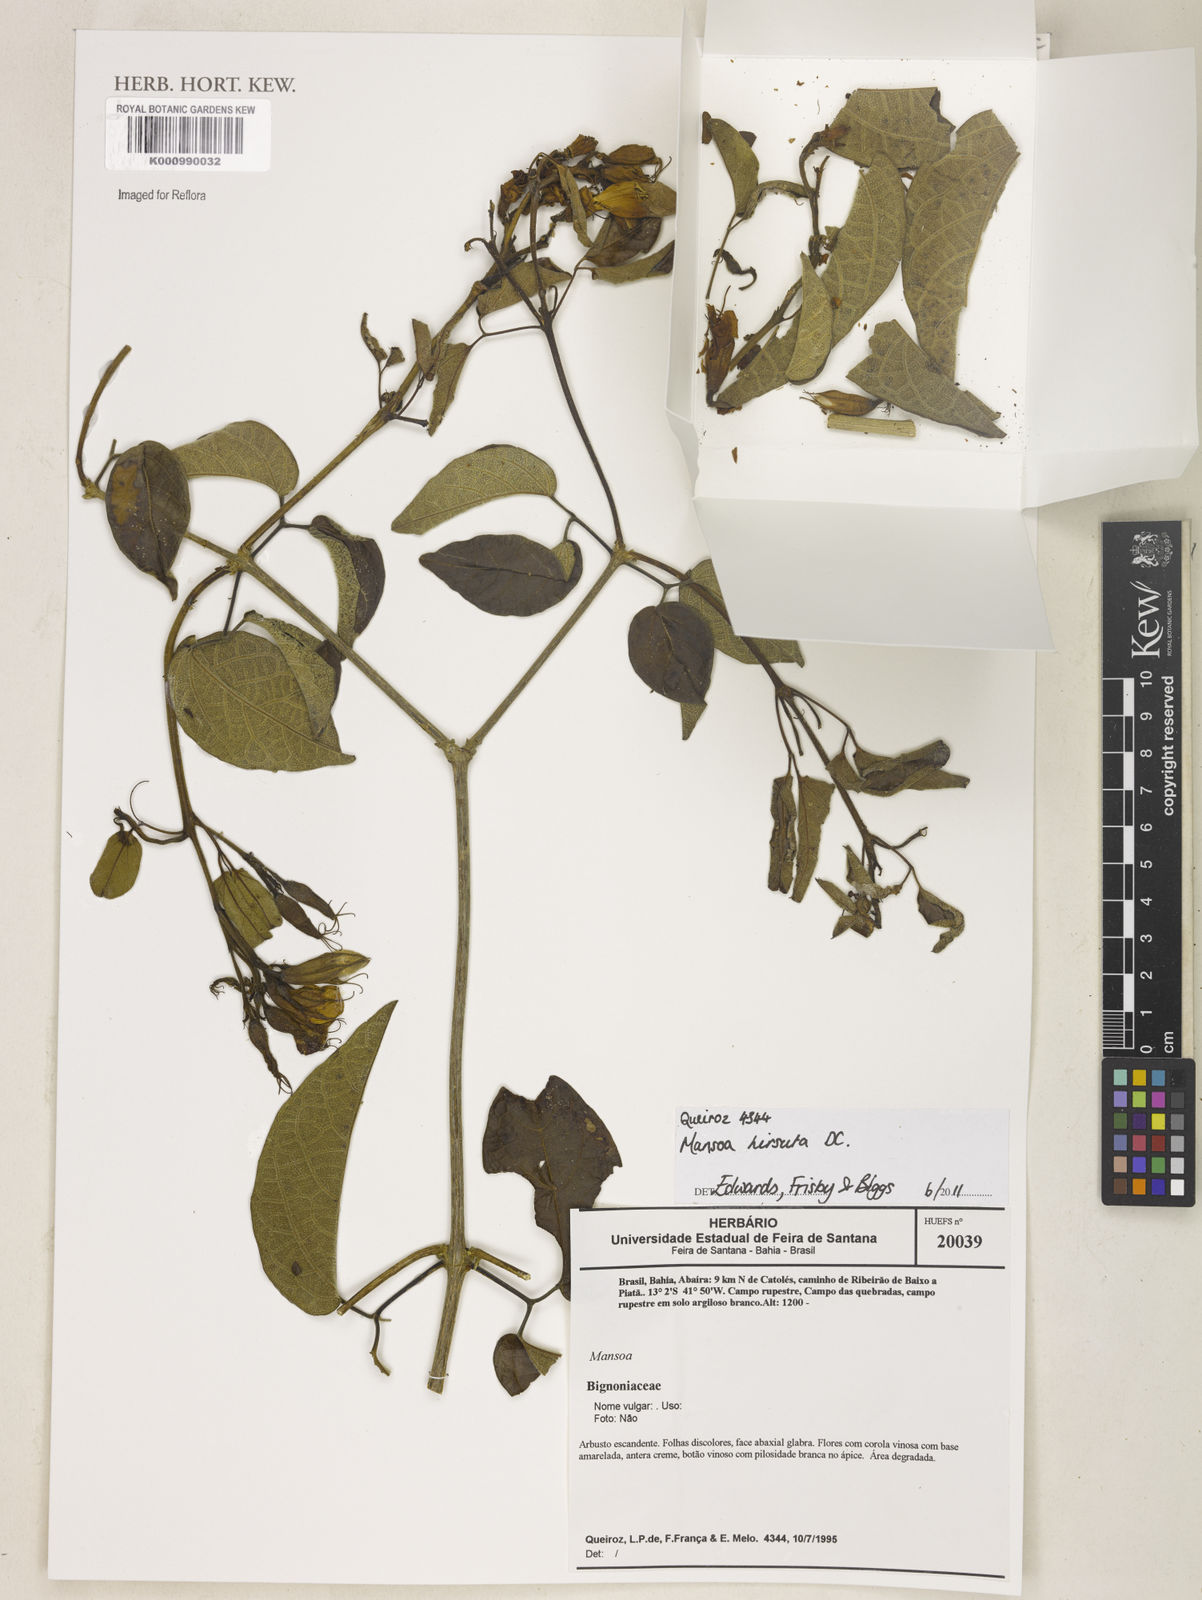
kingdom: Plantae
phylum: Tracheophyta
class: Magnoliopsida
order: Lamiales
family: Bignoniaceae
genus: Mansoa
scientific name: Mansoa hirsuta
